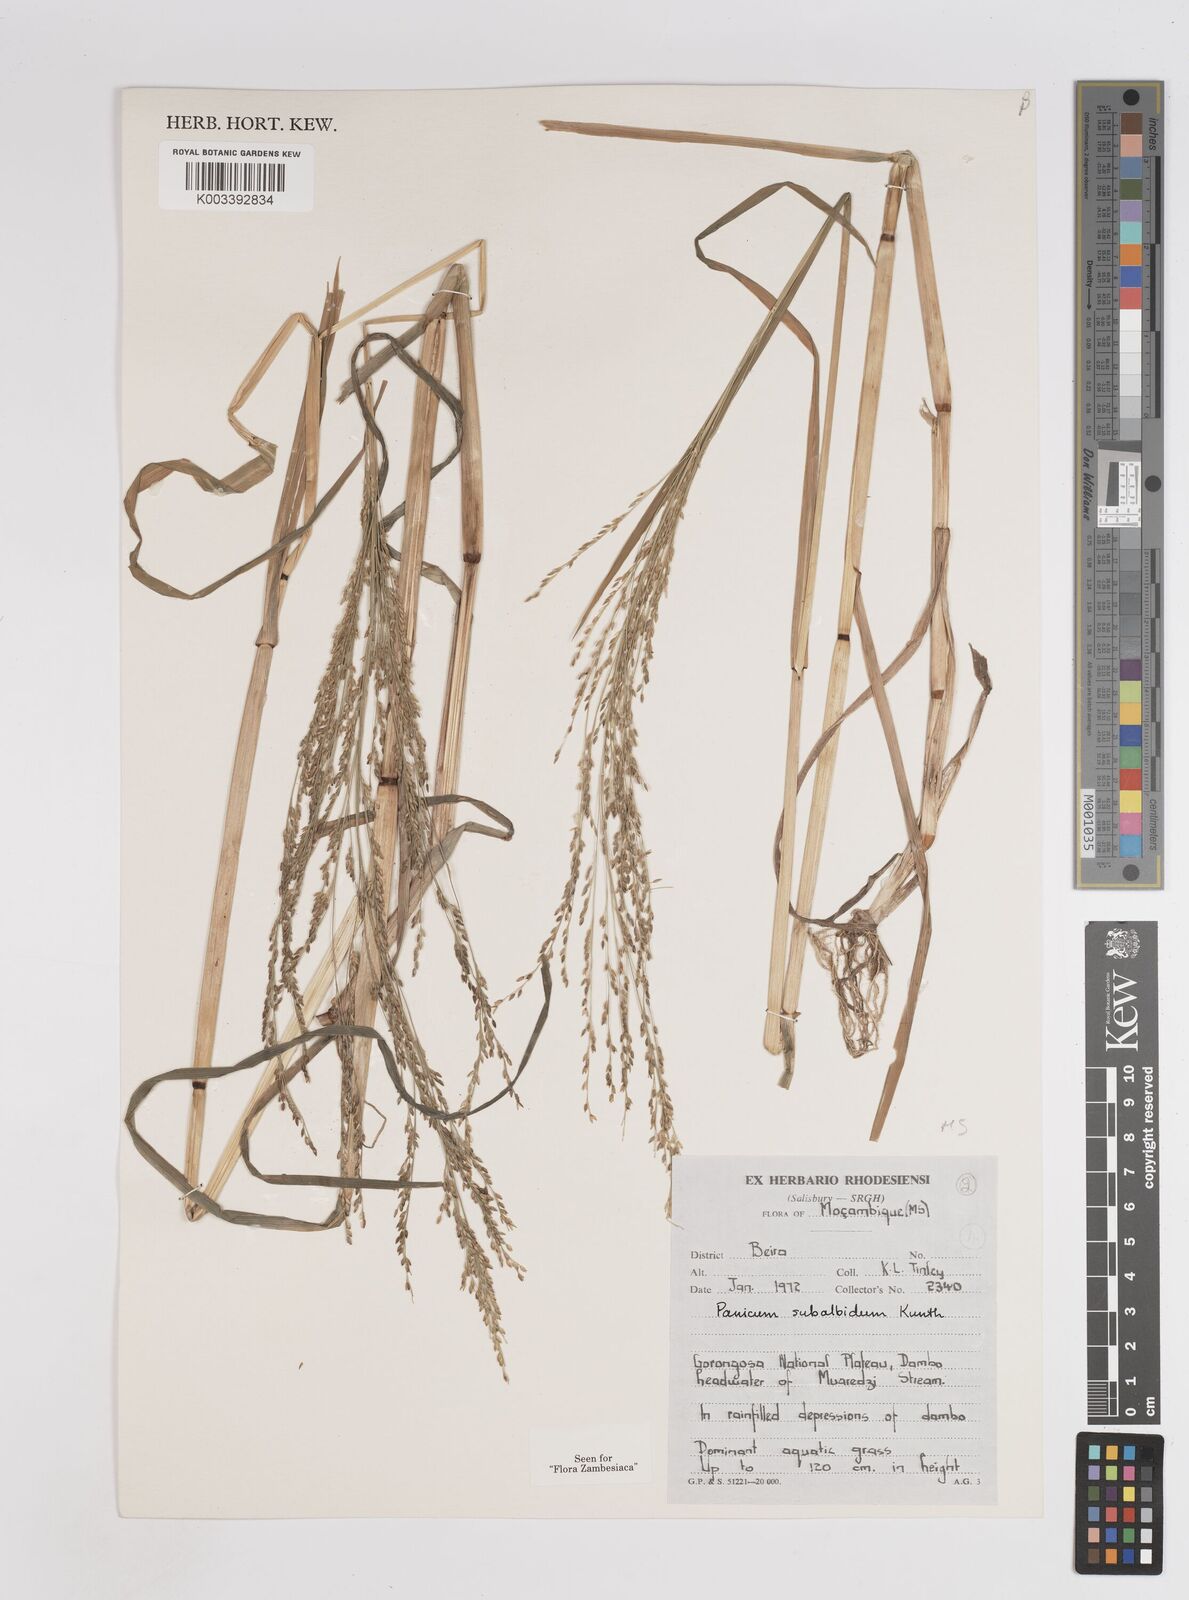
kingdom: Plantae
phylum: Tracheophyta
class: Liliopsida
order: Poales
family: Poaceae
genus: Panicum
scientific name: Panicum subalbidum
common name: Elbow buffalo grass
